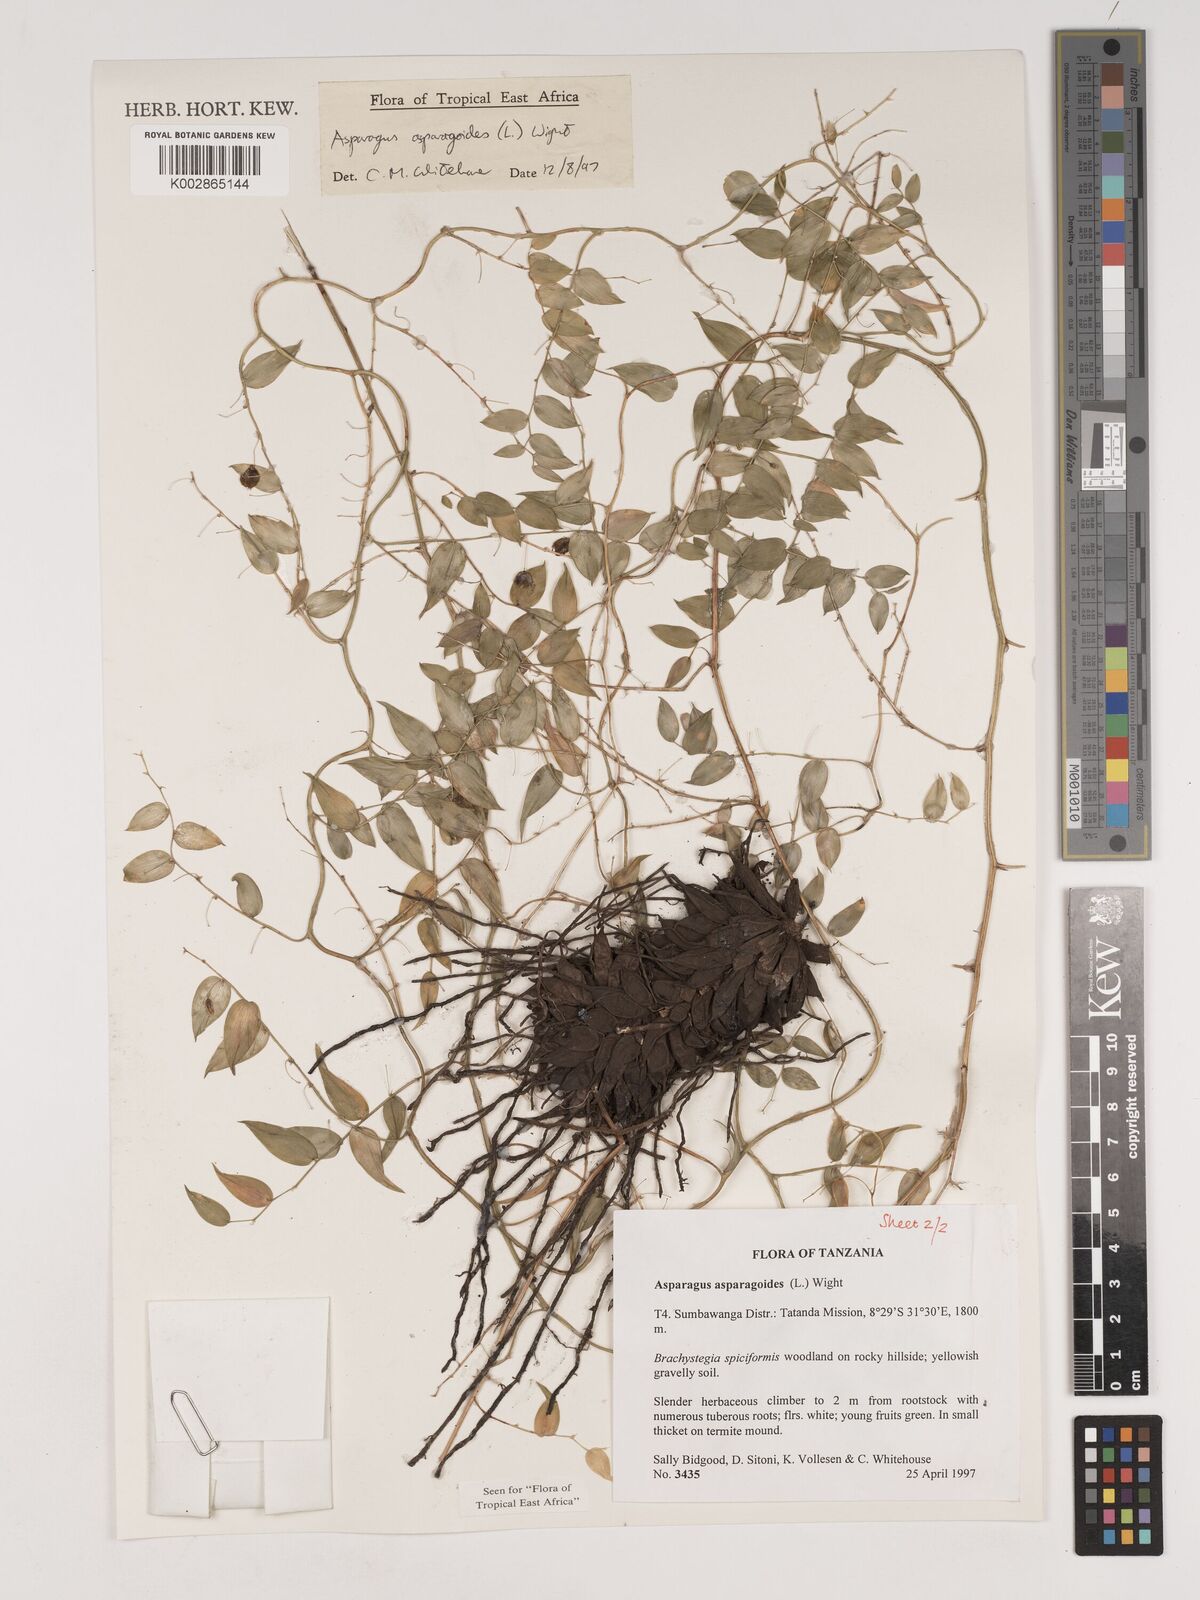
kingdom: Plantae
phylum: Tracheophyta
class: Liliopsida
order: Asparagales
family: Asparagaceae
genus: Asparagus
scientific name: Asparagus asparagoides
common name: African asparagus fern
